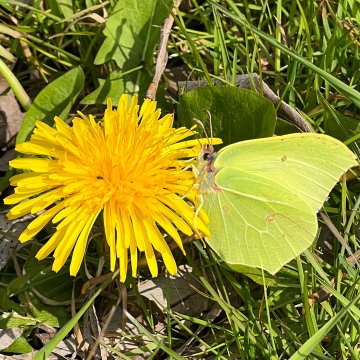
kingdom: Animalia
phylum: Arthropoda
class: Insecta
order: Lepidoptera
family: Pieridae
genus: Gonepteryx
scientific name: Gonepteryx rhamni
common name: Common Brimstone
